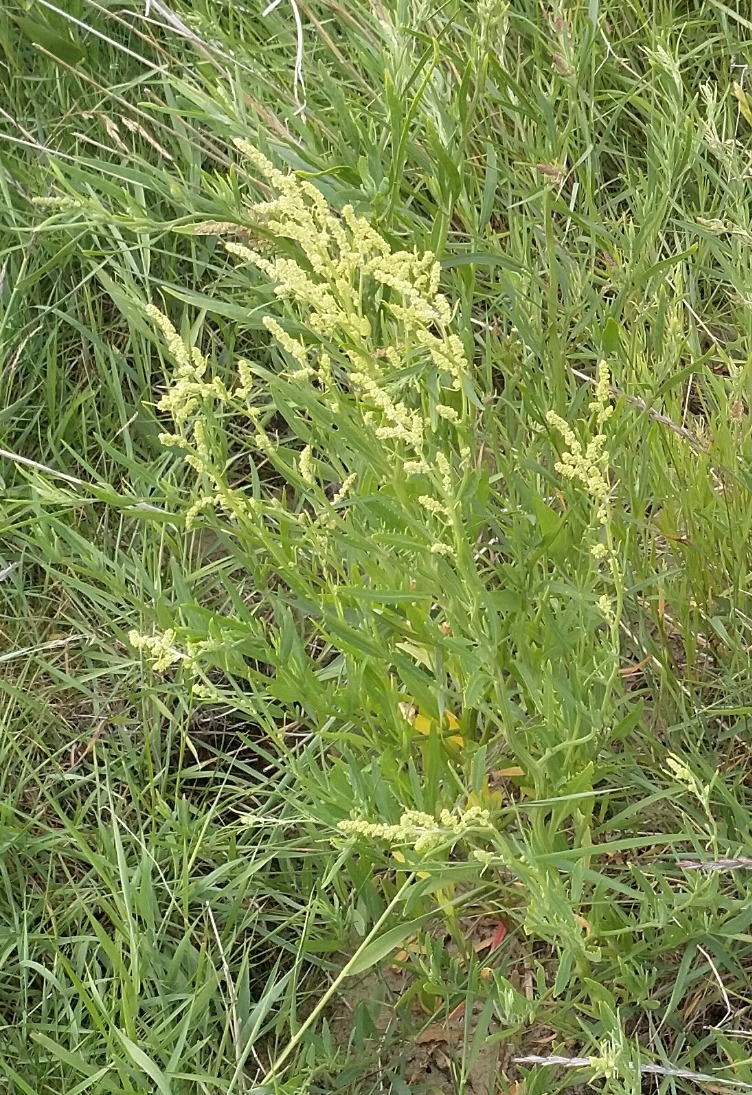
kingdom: Plantae
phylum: Tracheophyta
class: Magnoliopsida
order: Caryophyllales
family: Amaranthaceae
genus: Atriplex
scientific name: Atriplex littoralis
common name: Strand-mælde
